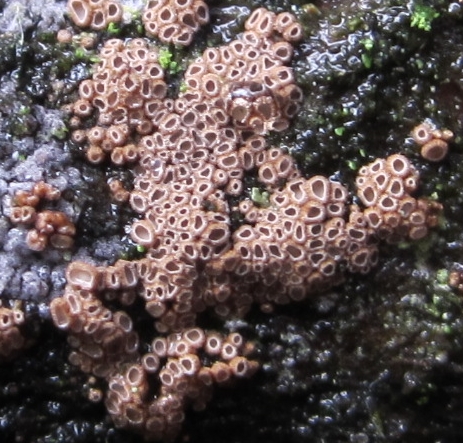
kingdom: Fungi
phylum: Basidiomycota
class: Agaricomycetes
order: Agaricales
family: Niaceae
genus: Merismodes
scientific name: Merismodes anomala
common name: almindelig læderskål
